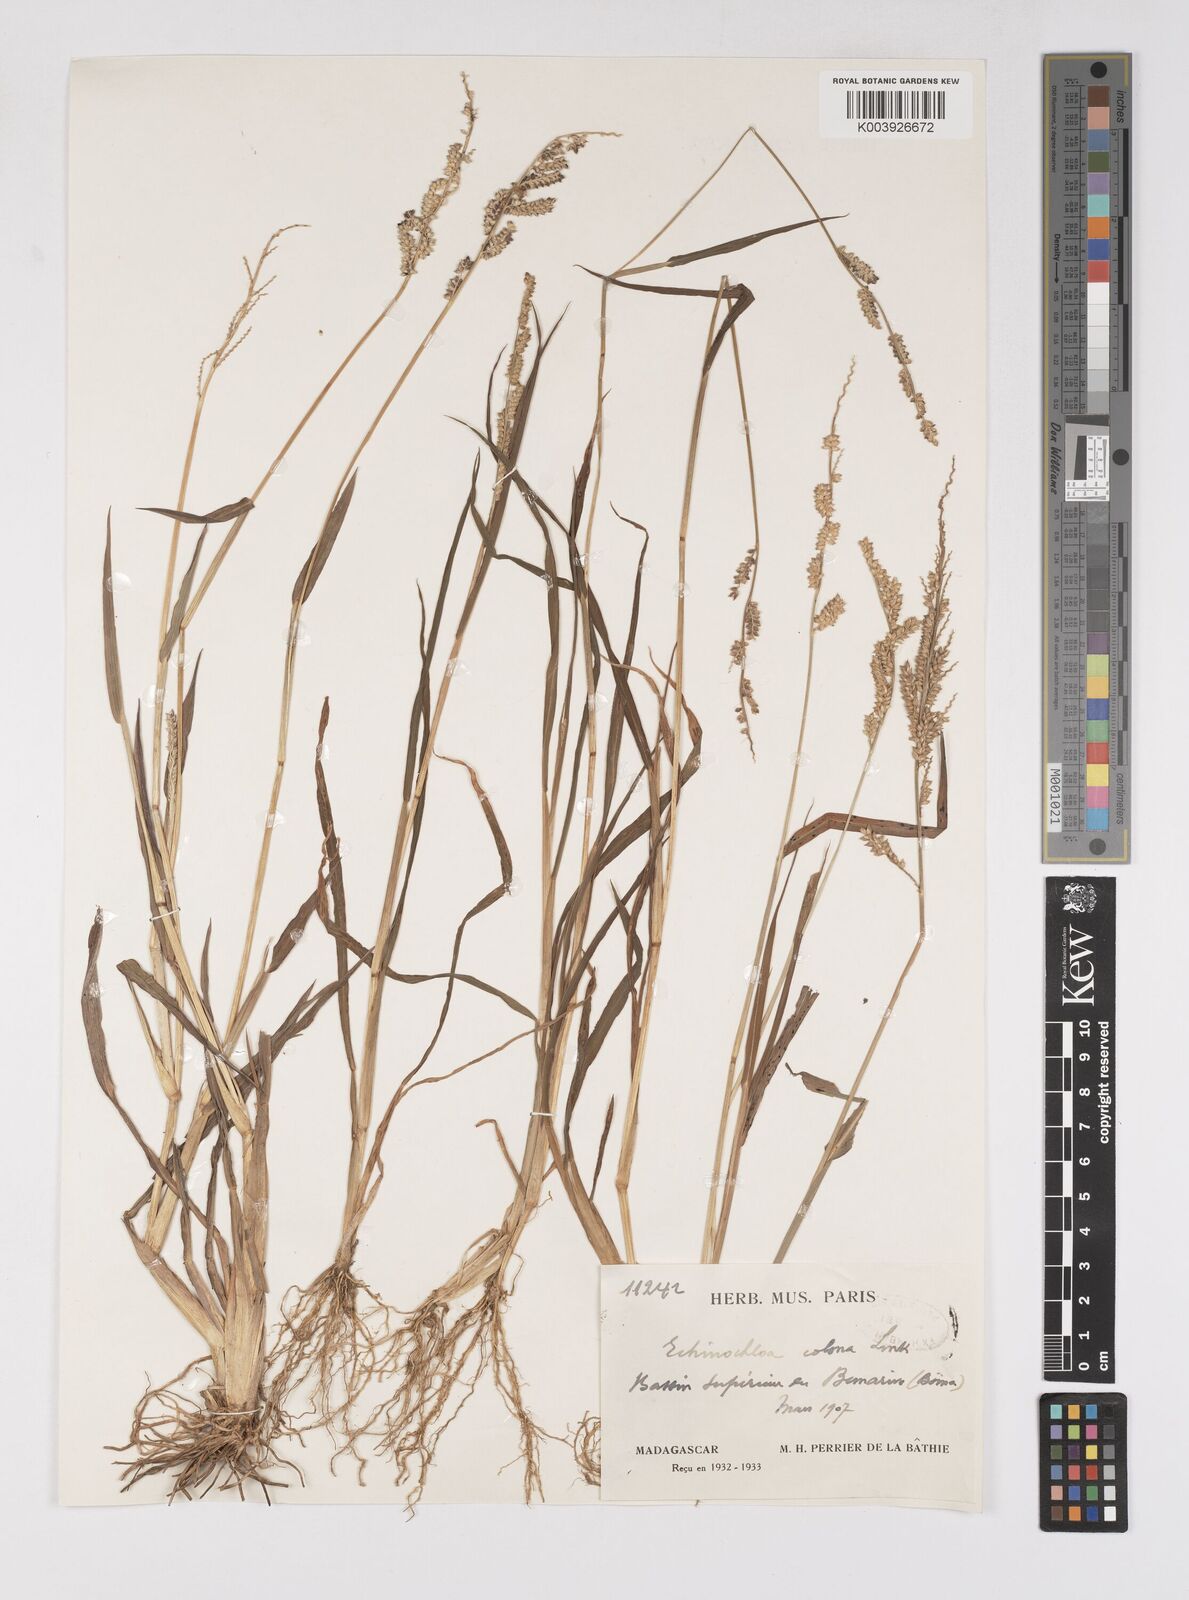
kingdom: Plantae
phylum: Tracheophyta
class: Liliopsida
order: Poales
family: Poaceae
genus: Echinochloa
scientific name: Echinochloa colonum
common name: Jungle rice
